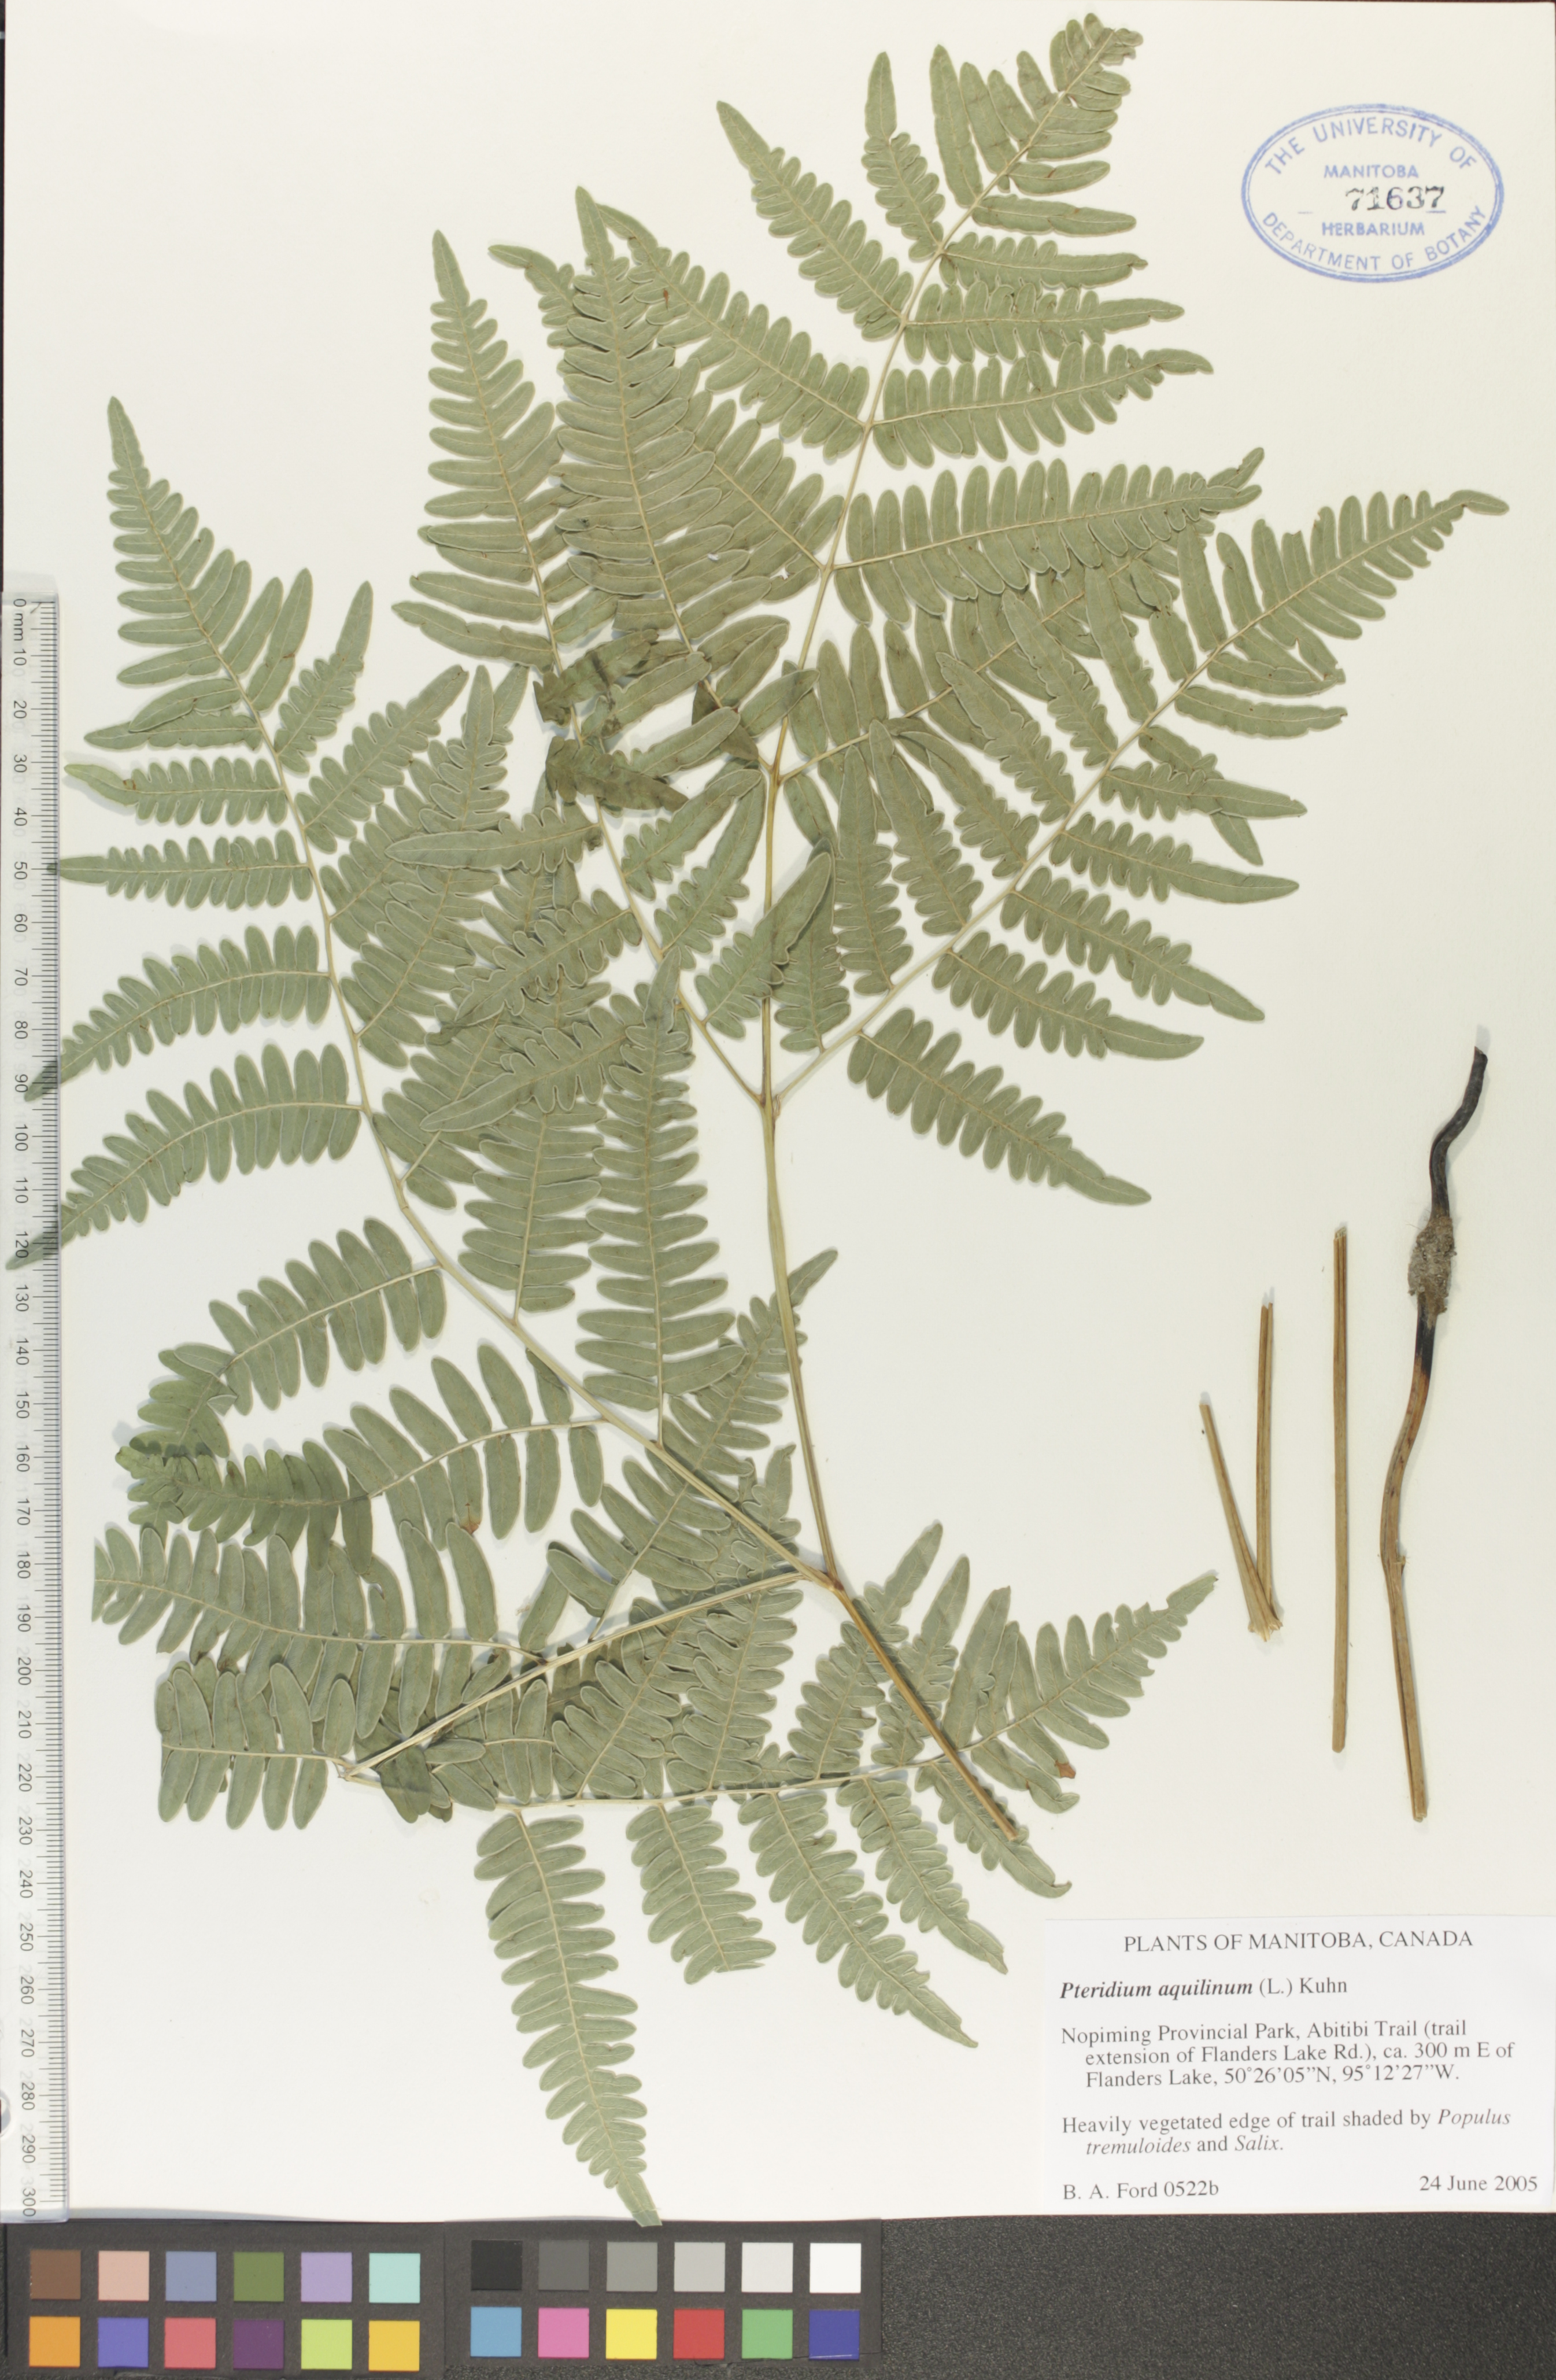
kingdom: Plantae
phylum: Tracheophyta
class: Polypodiopsida
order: Polypodiales
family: Dennstaedtiaceae
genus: Pteridium
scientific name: Pteridium aquilinum
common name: Bracken
